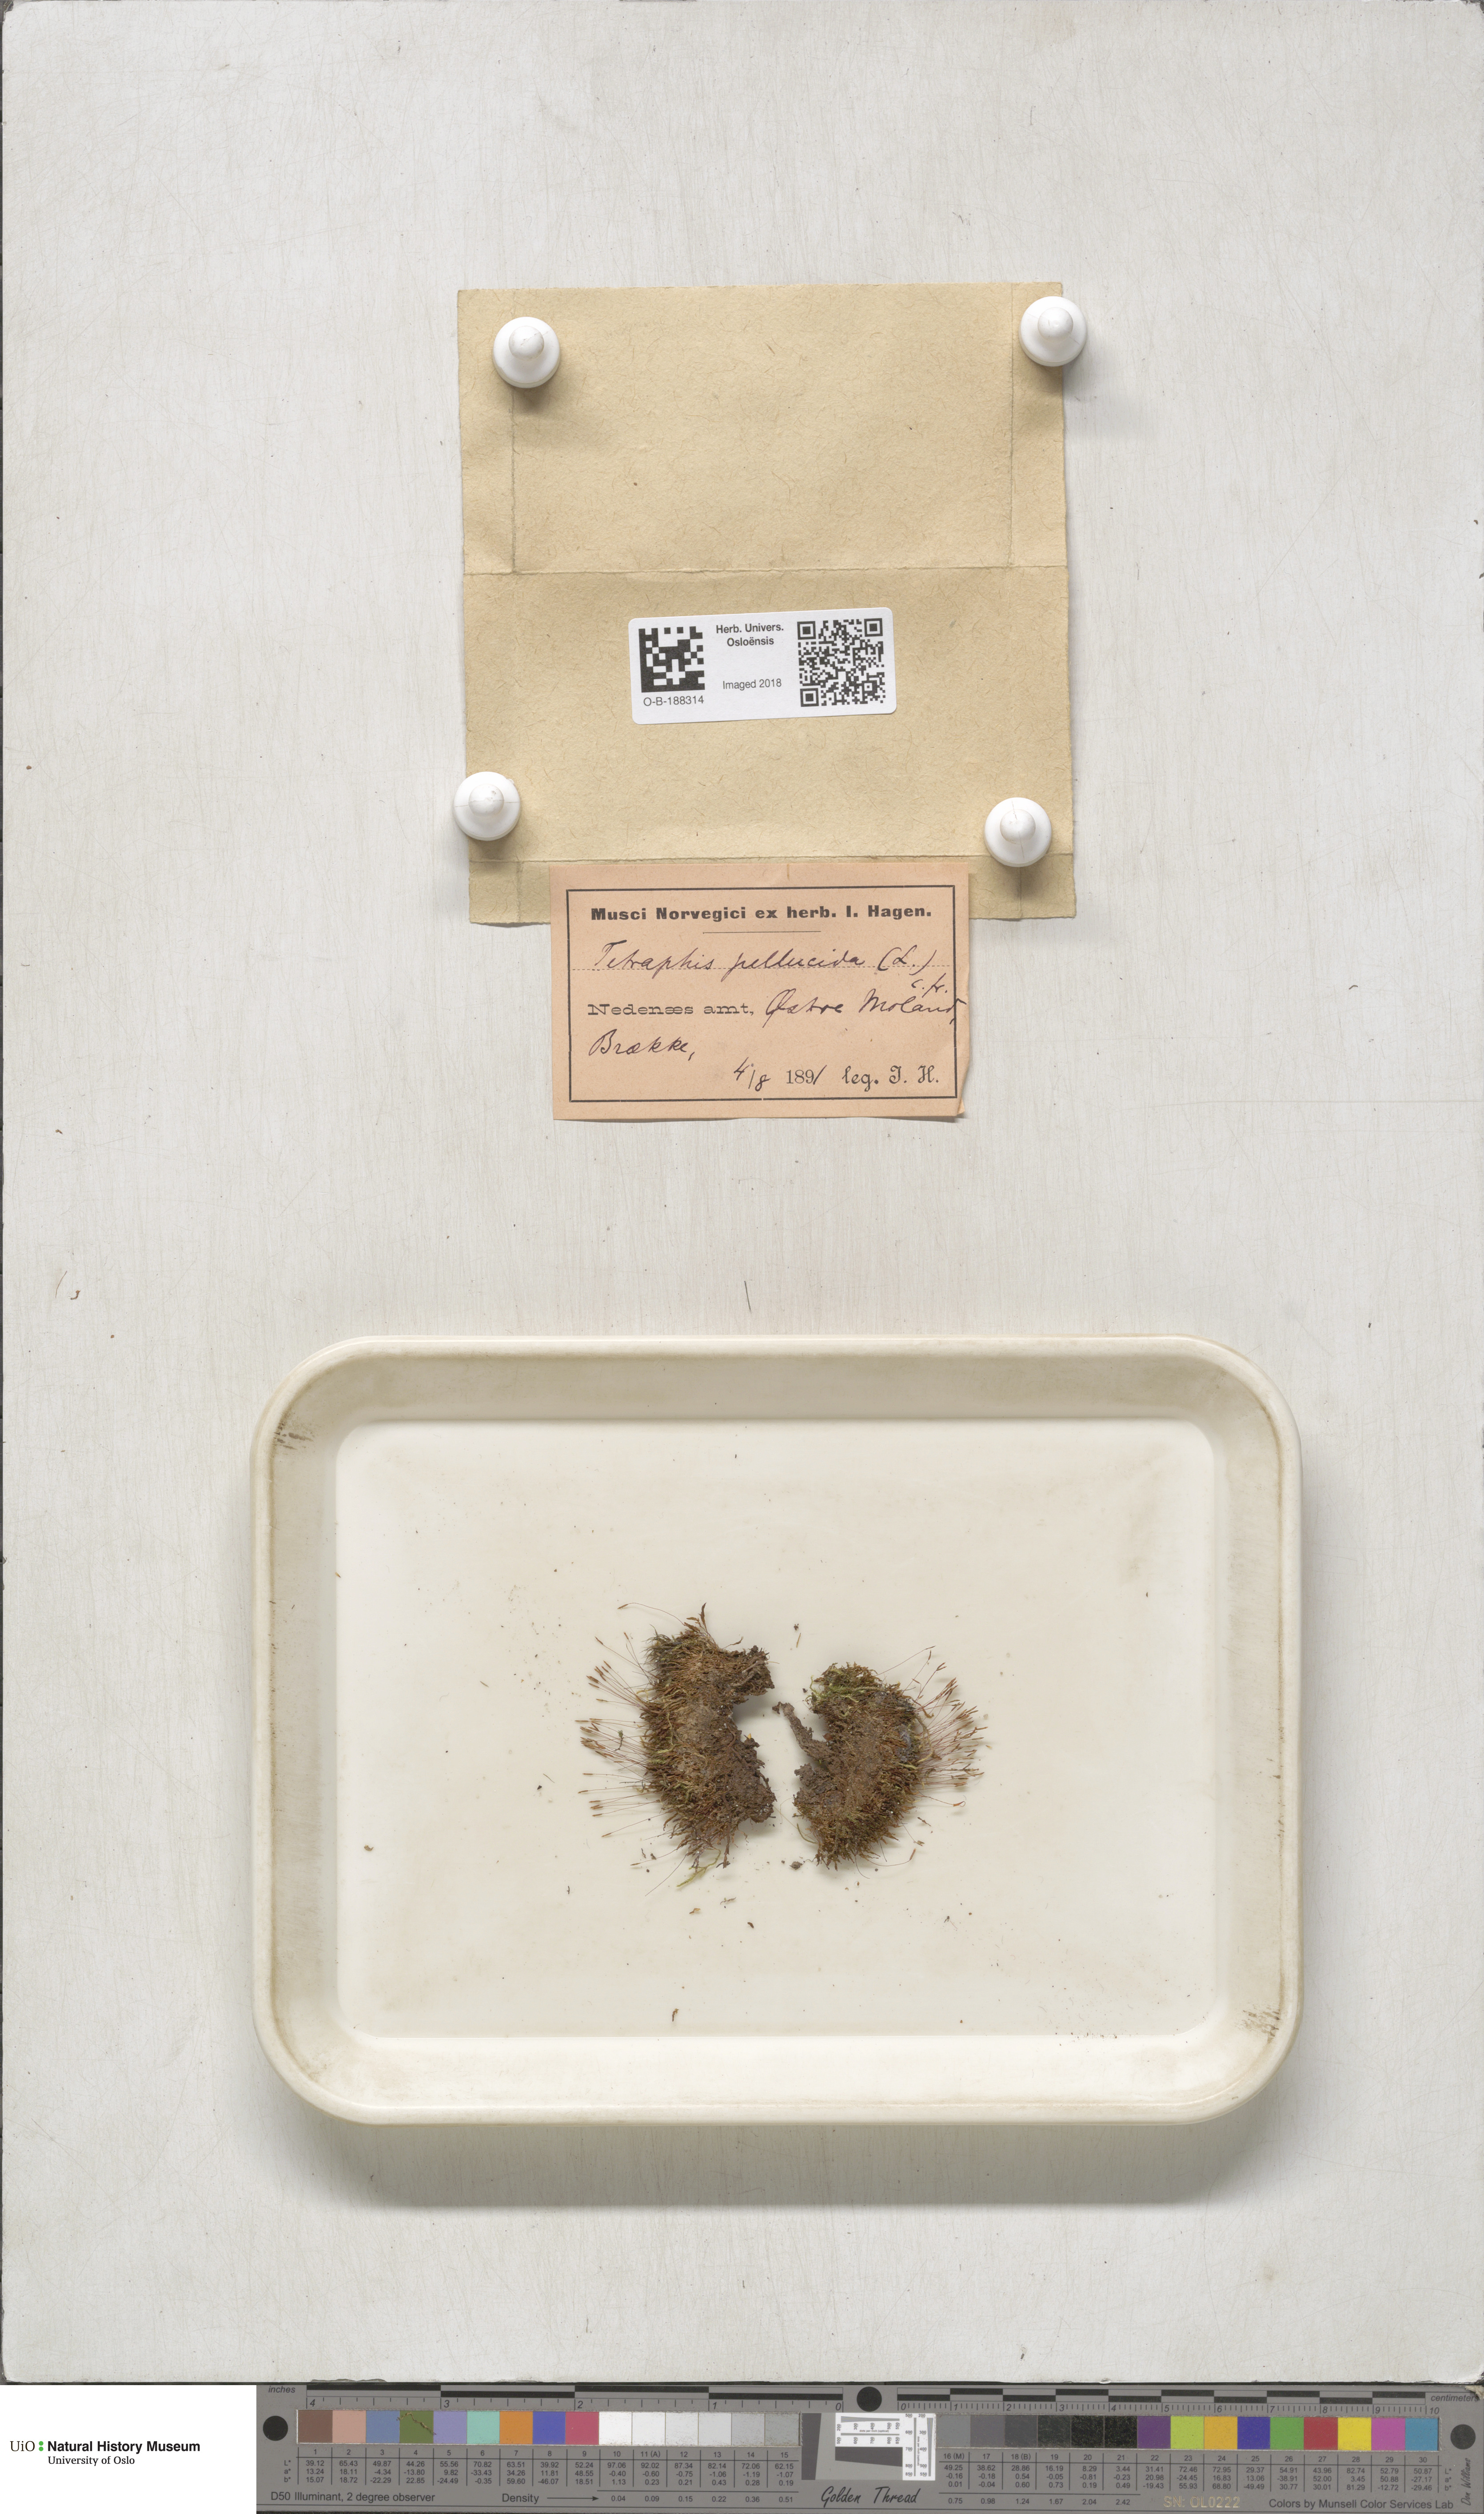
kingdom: Plantae
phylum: Bryophyta
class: Polytrichopsida
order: Tetraphidales
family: Tetraphidaceae
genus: Tetraphis
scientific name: Tetraphis pellucida
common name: Common four-toothed moss
